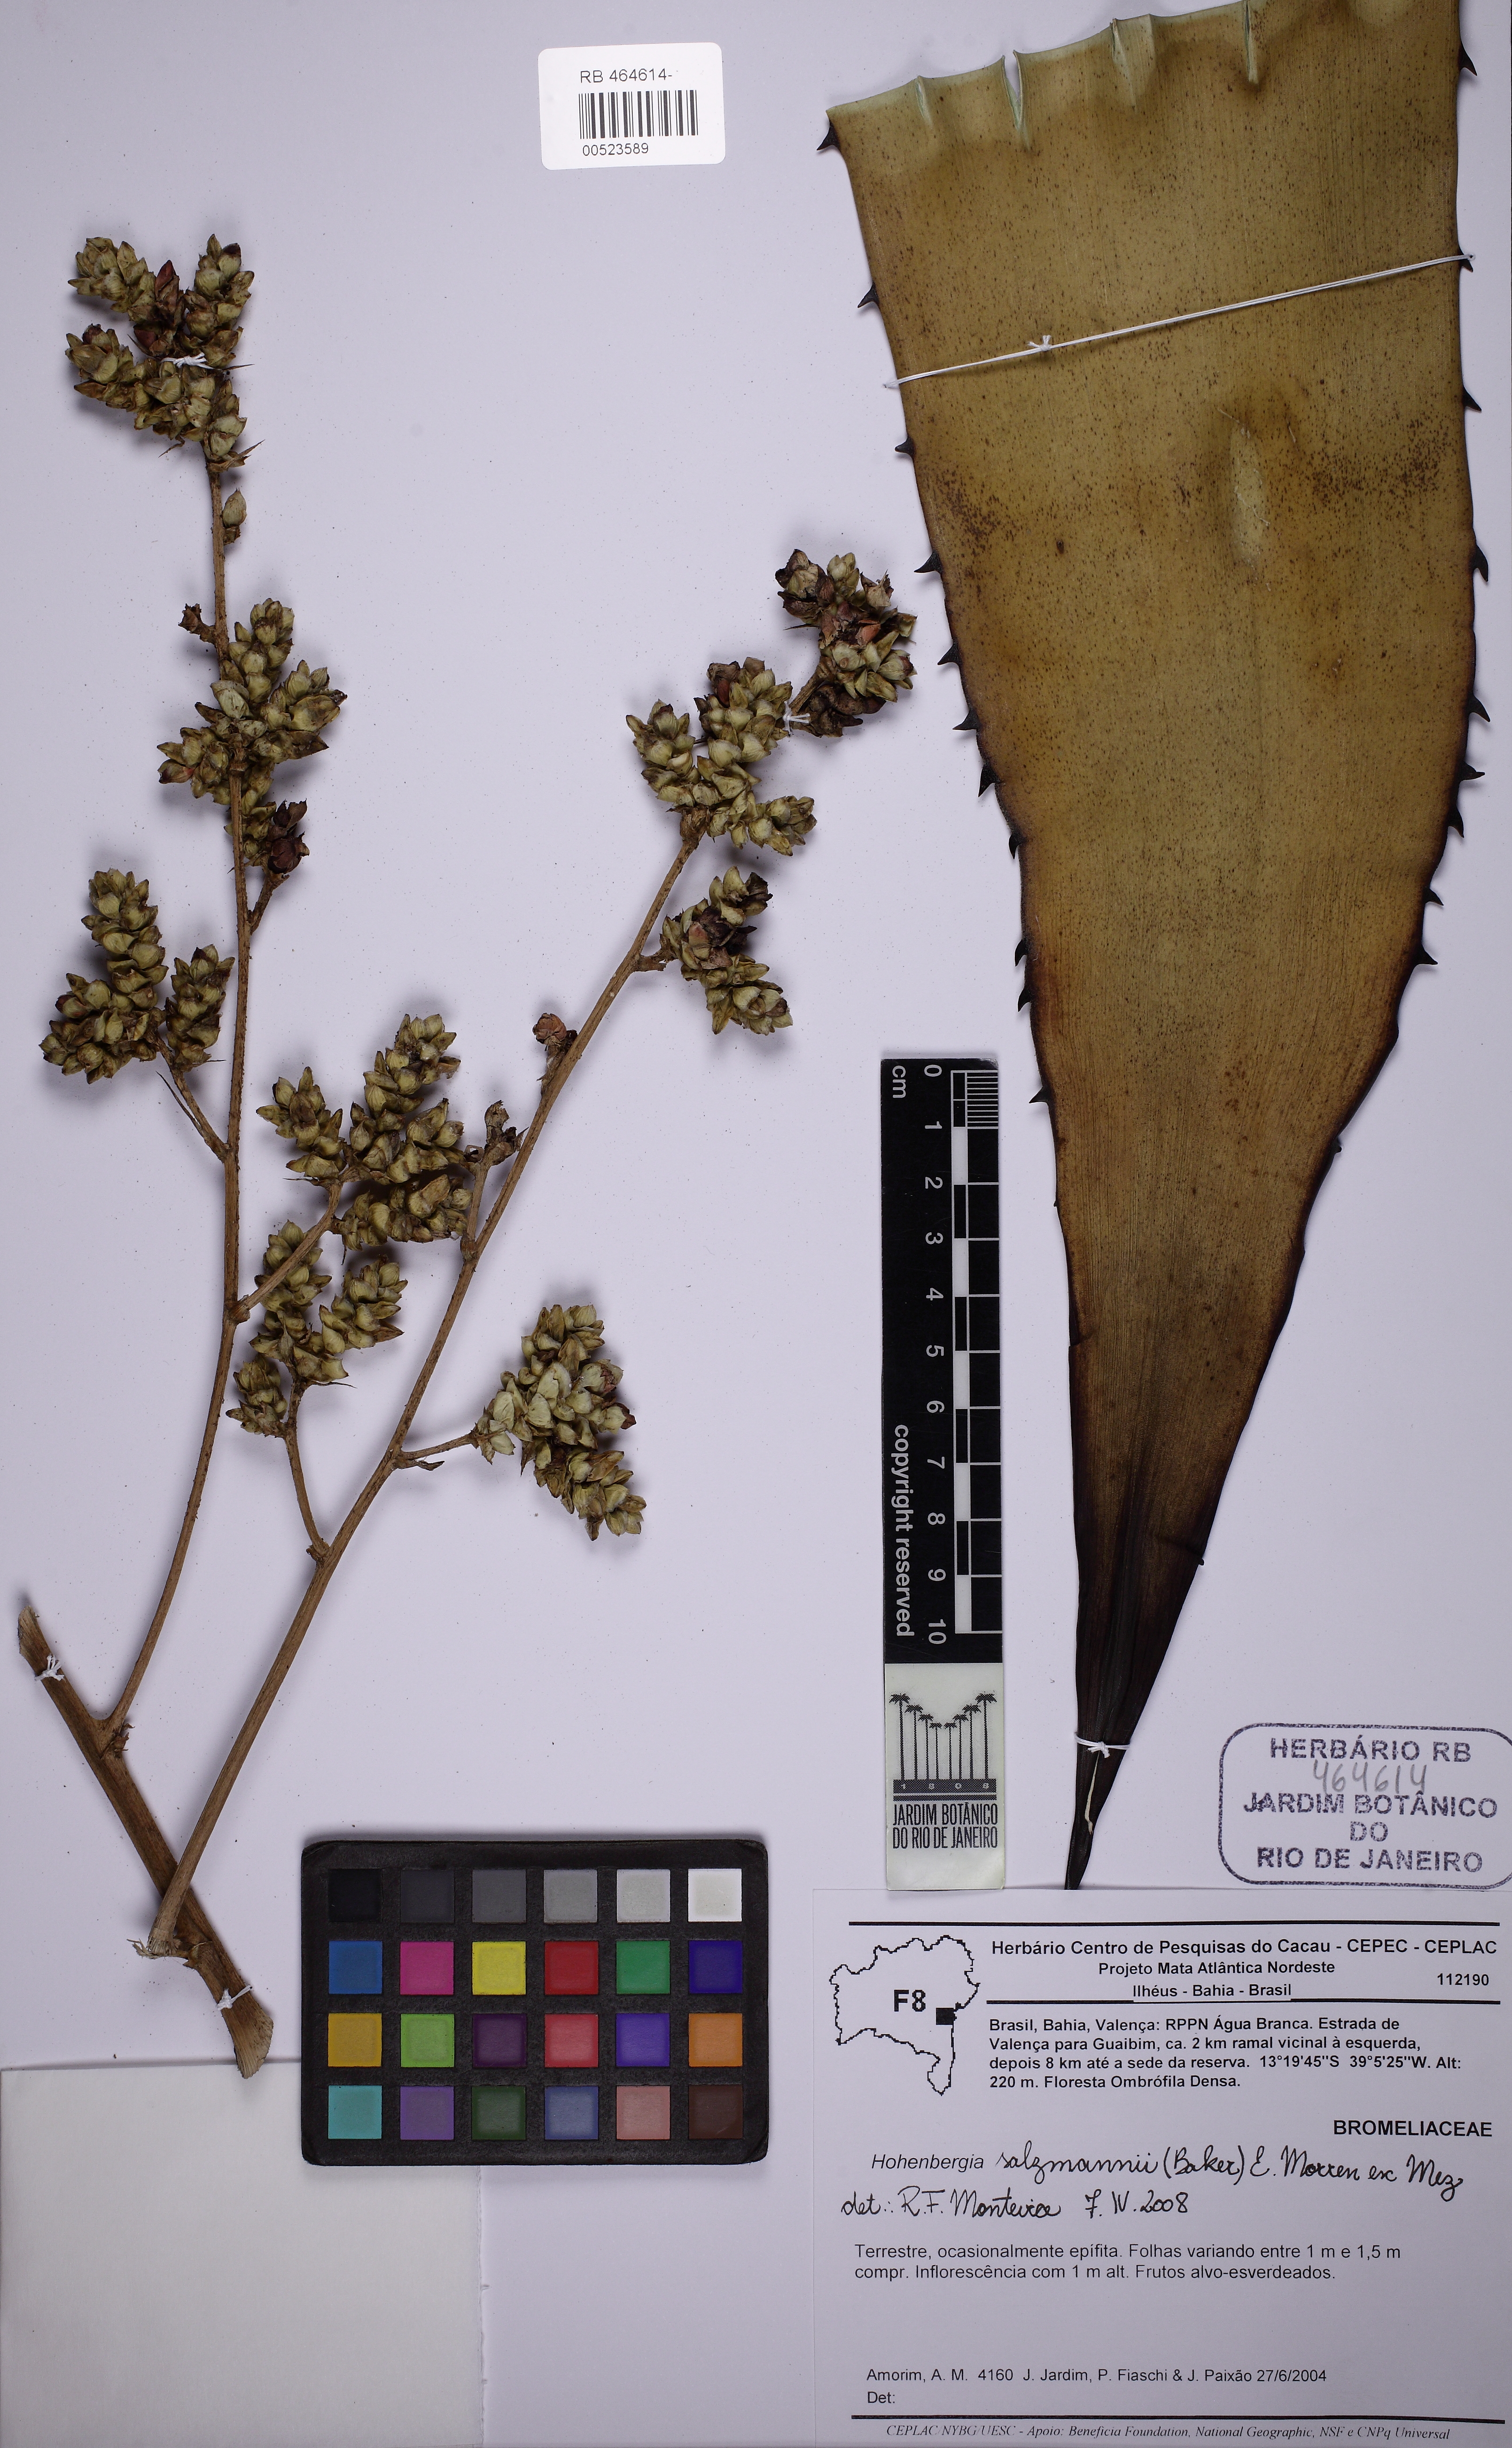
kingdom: Plantae
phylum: Tracheophyta
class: Liliopsida
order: Poales
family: Bromeliaceae
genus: Hohenbergia
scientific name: Hohenbergia salzmannii
